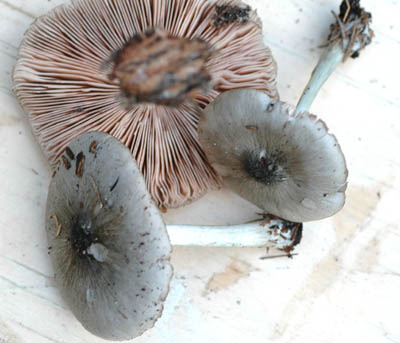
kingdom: Fungi
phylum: Basidiomycota
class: Agaricomycetes
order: Agaricales
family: Pluteaceae
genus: Pluteus
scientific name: Pluteus salicinus
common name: stiv skærmhat
